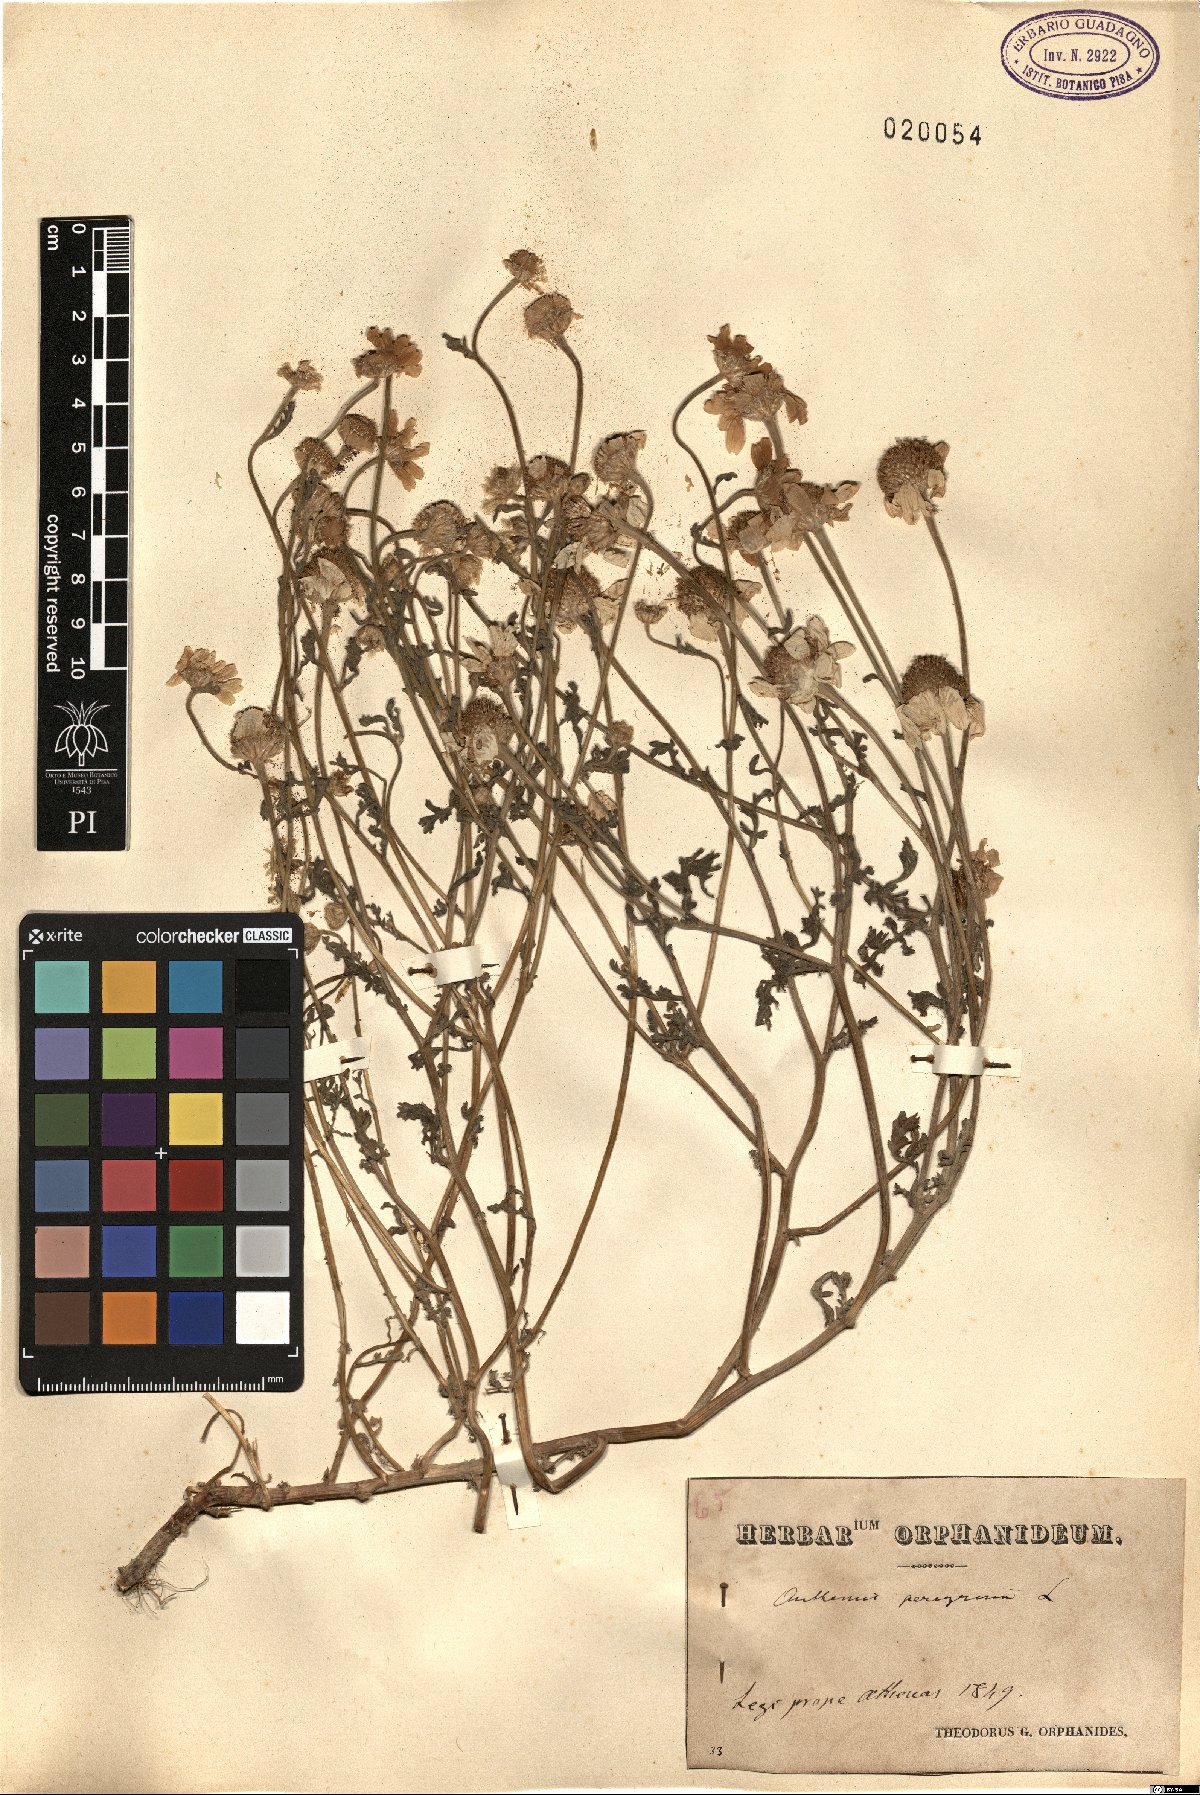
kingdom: Plantae
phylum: Tracheophyta
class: Magnoliopsida
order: Asterales
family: Asteraceae
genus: Anthemis
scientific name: Anthemis tomentosa
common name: Woolly chamomile
